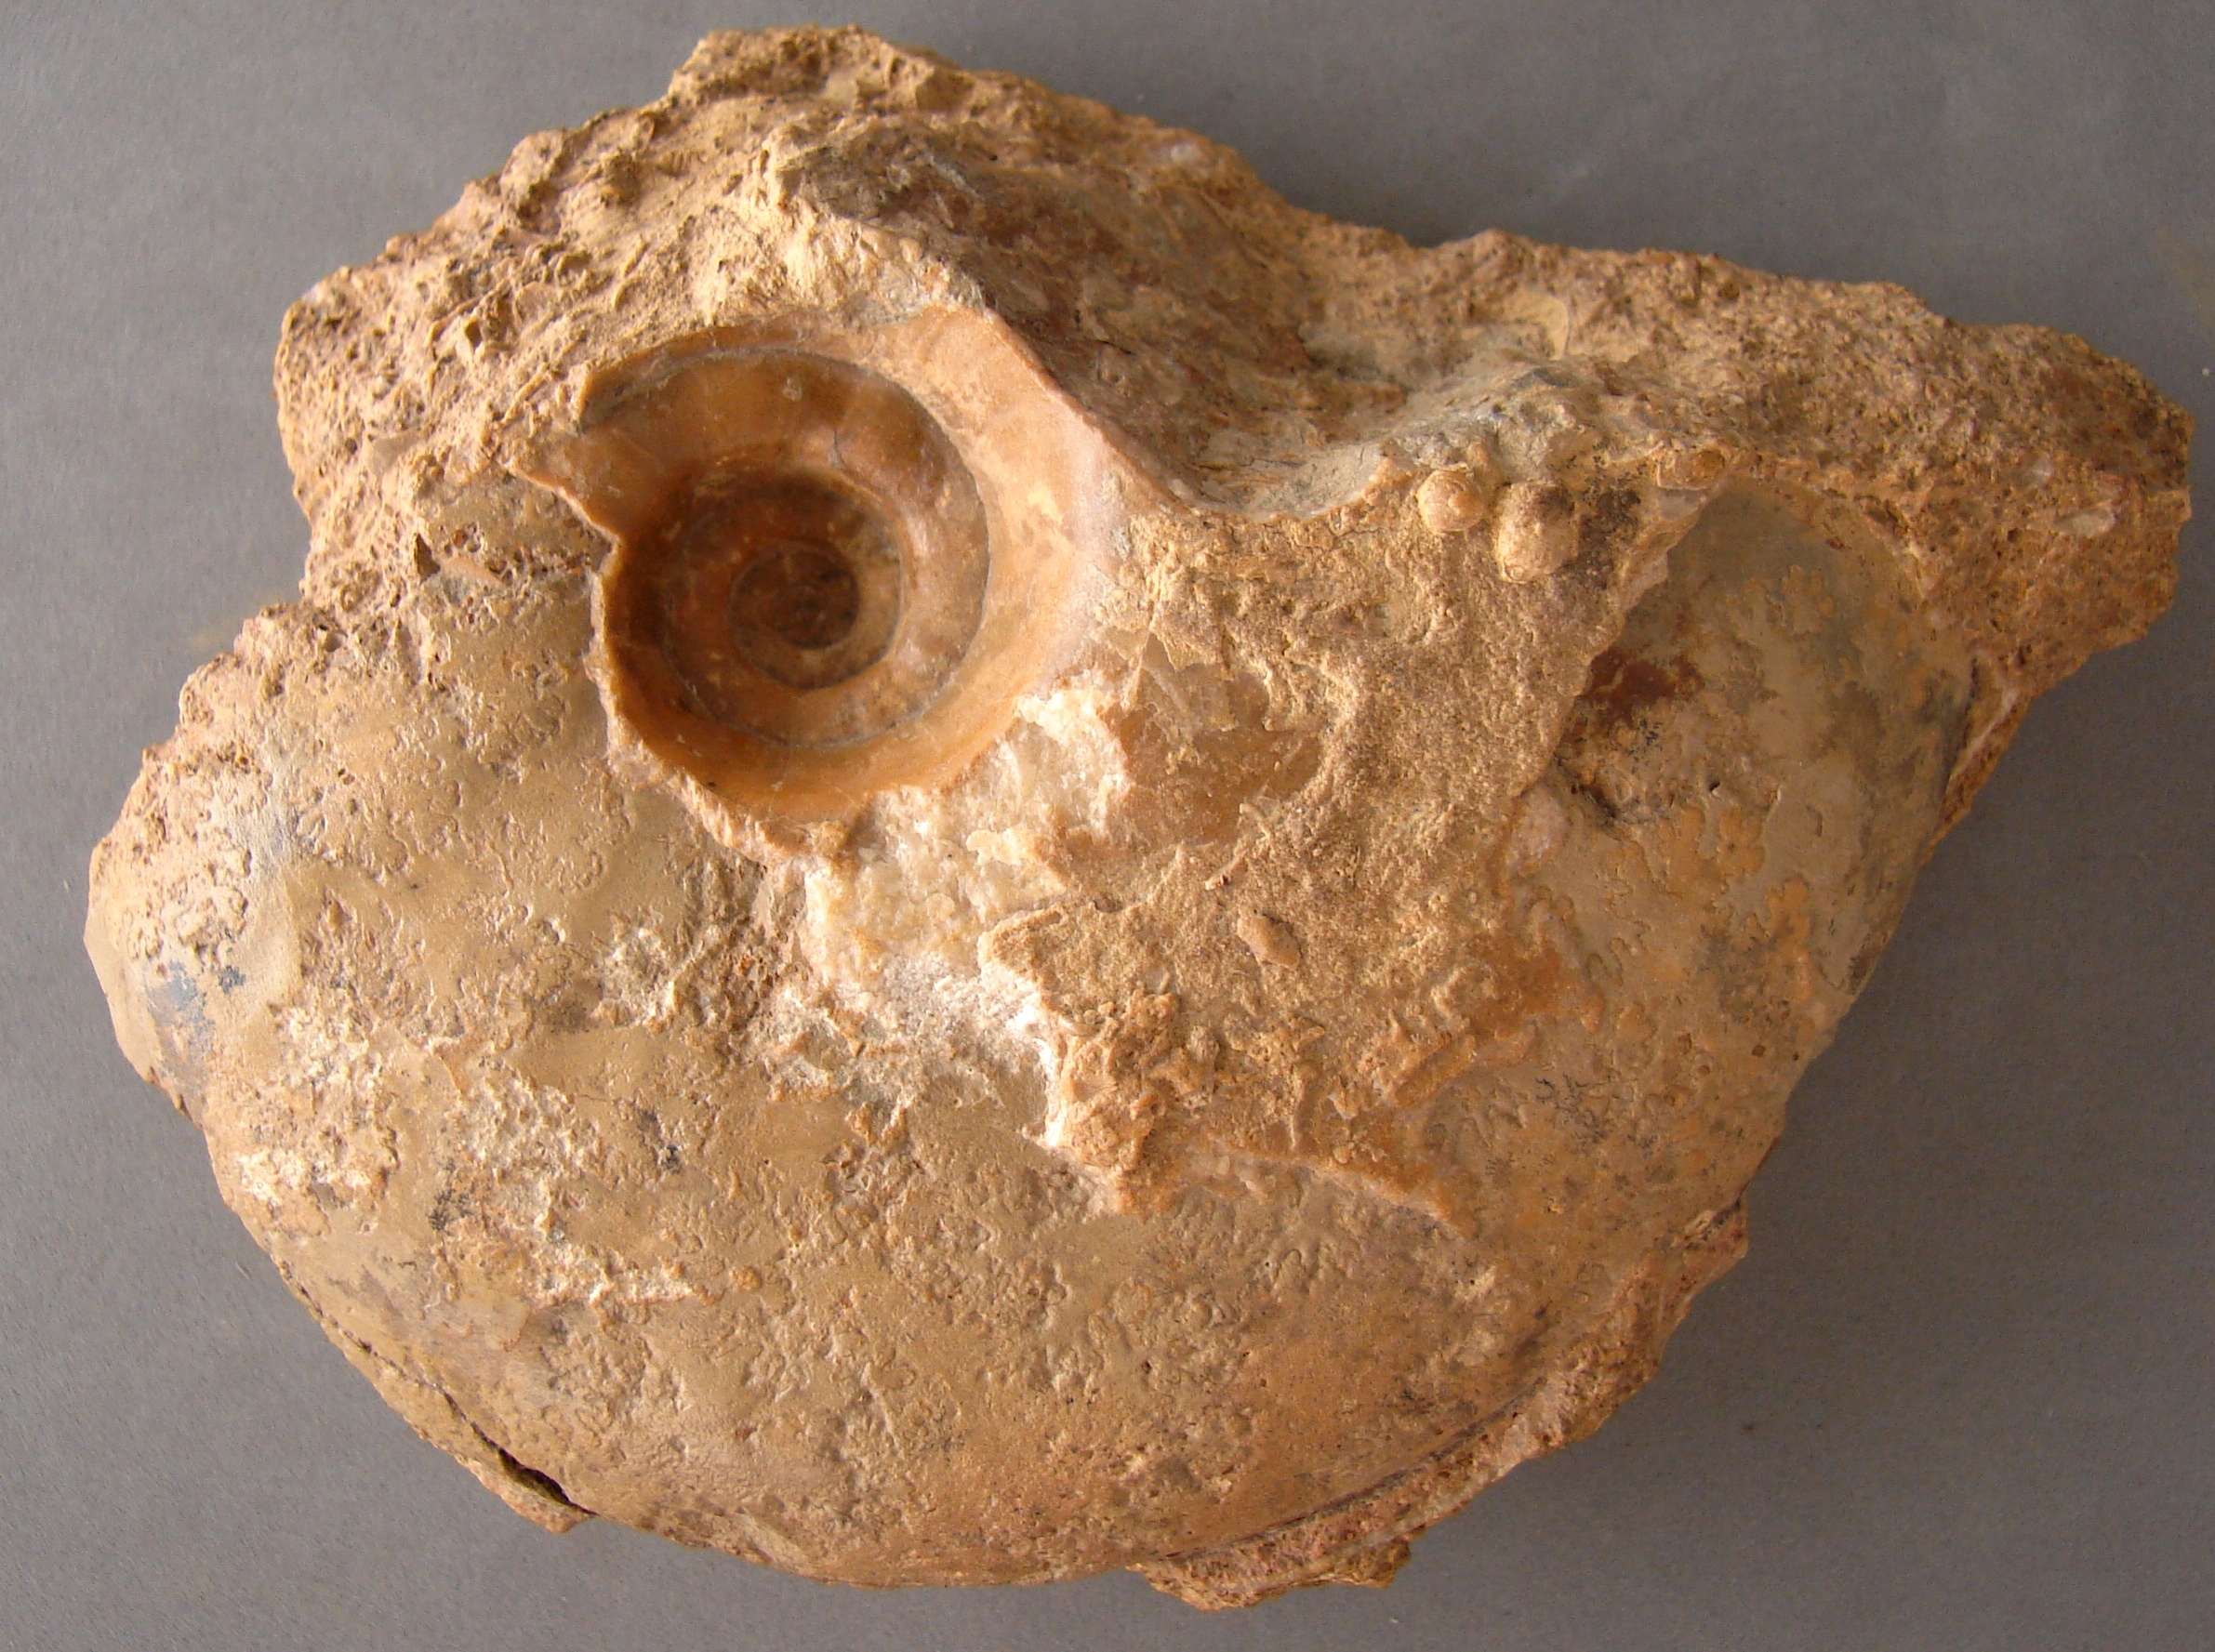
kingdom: Animalia
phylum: Mollusca
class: Cephalopoda
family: Sonniniidae
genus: Pseudoshirbuirnia
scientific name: Pseudoshirbuirnia
